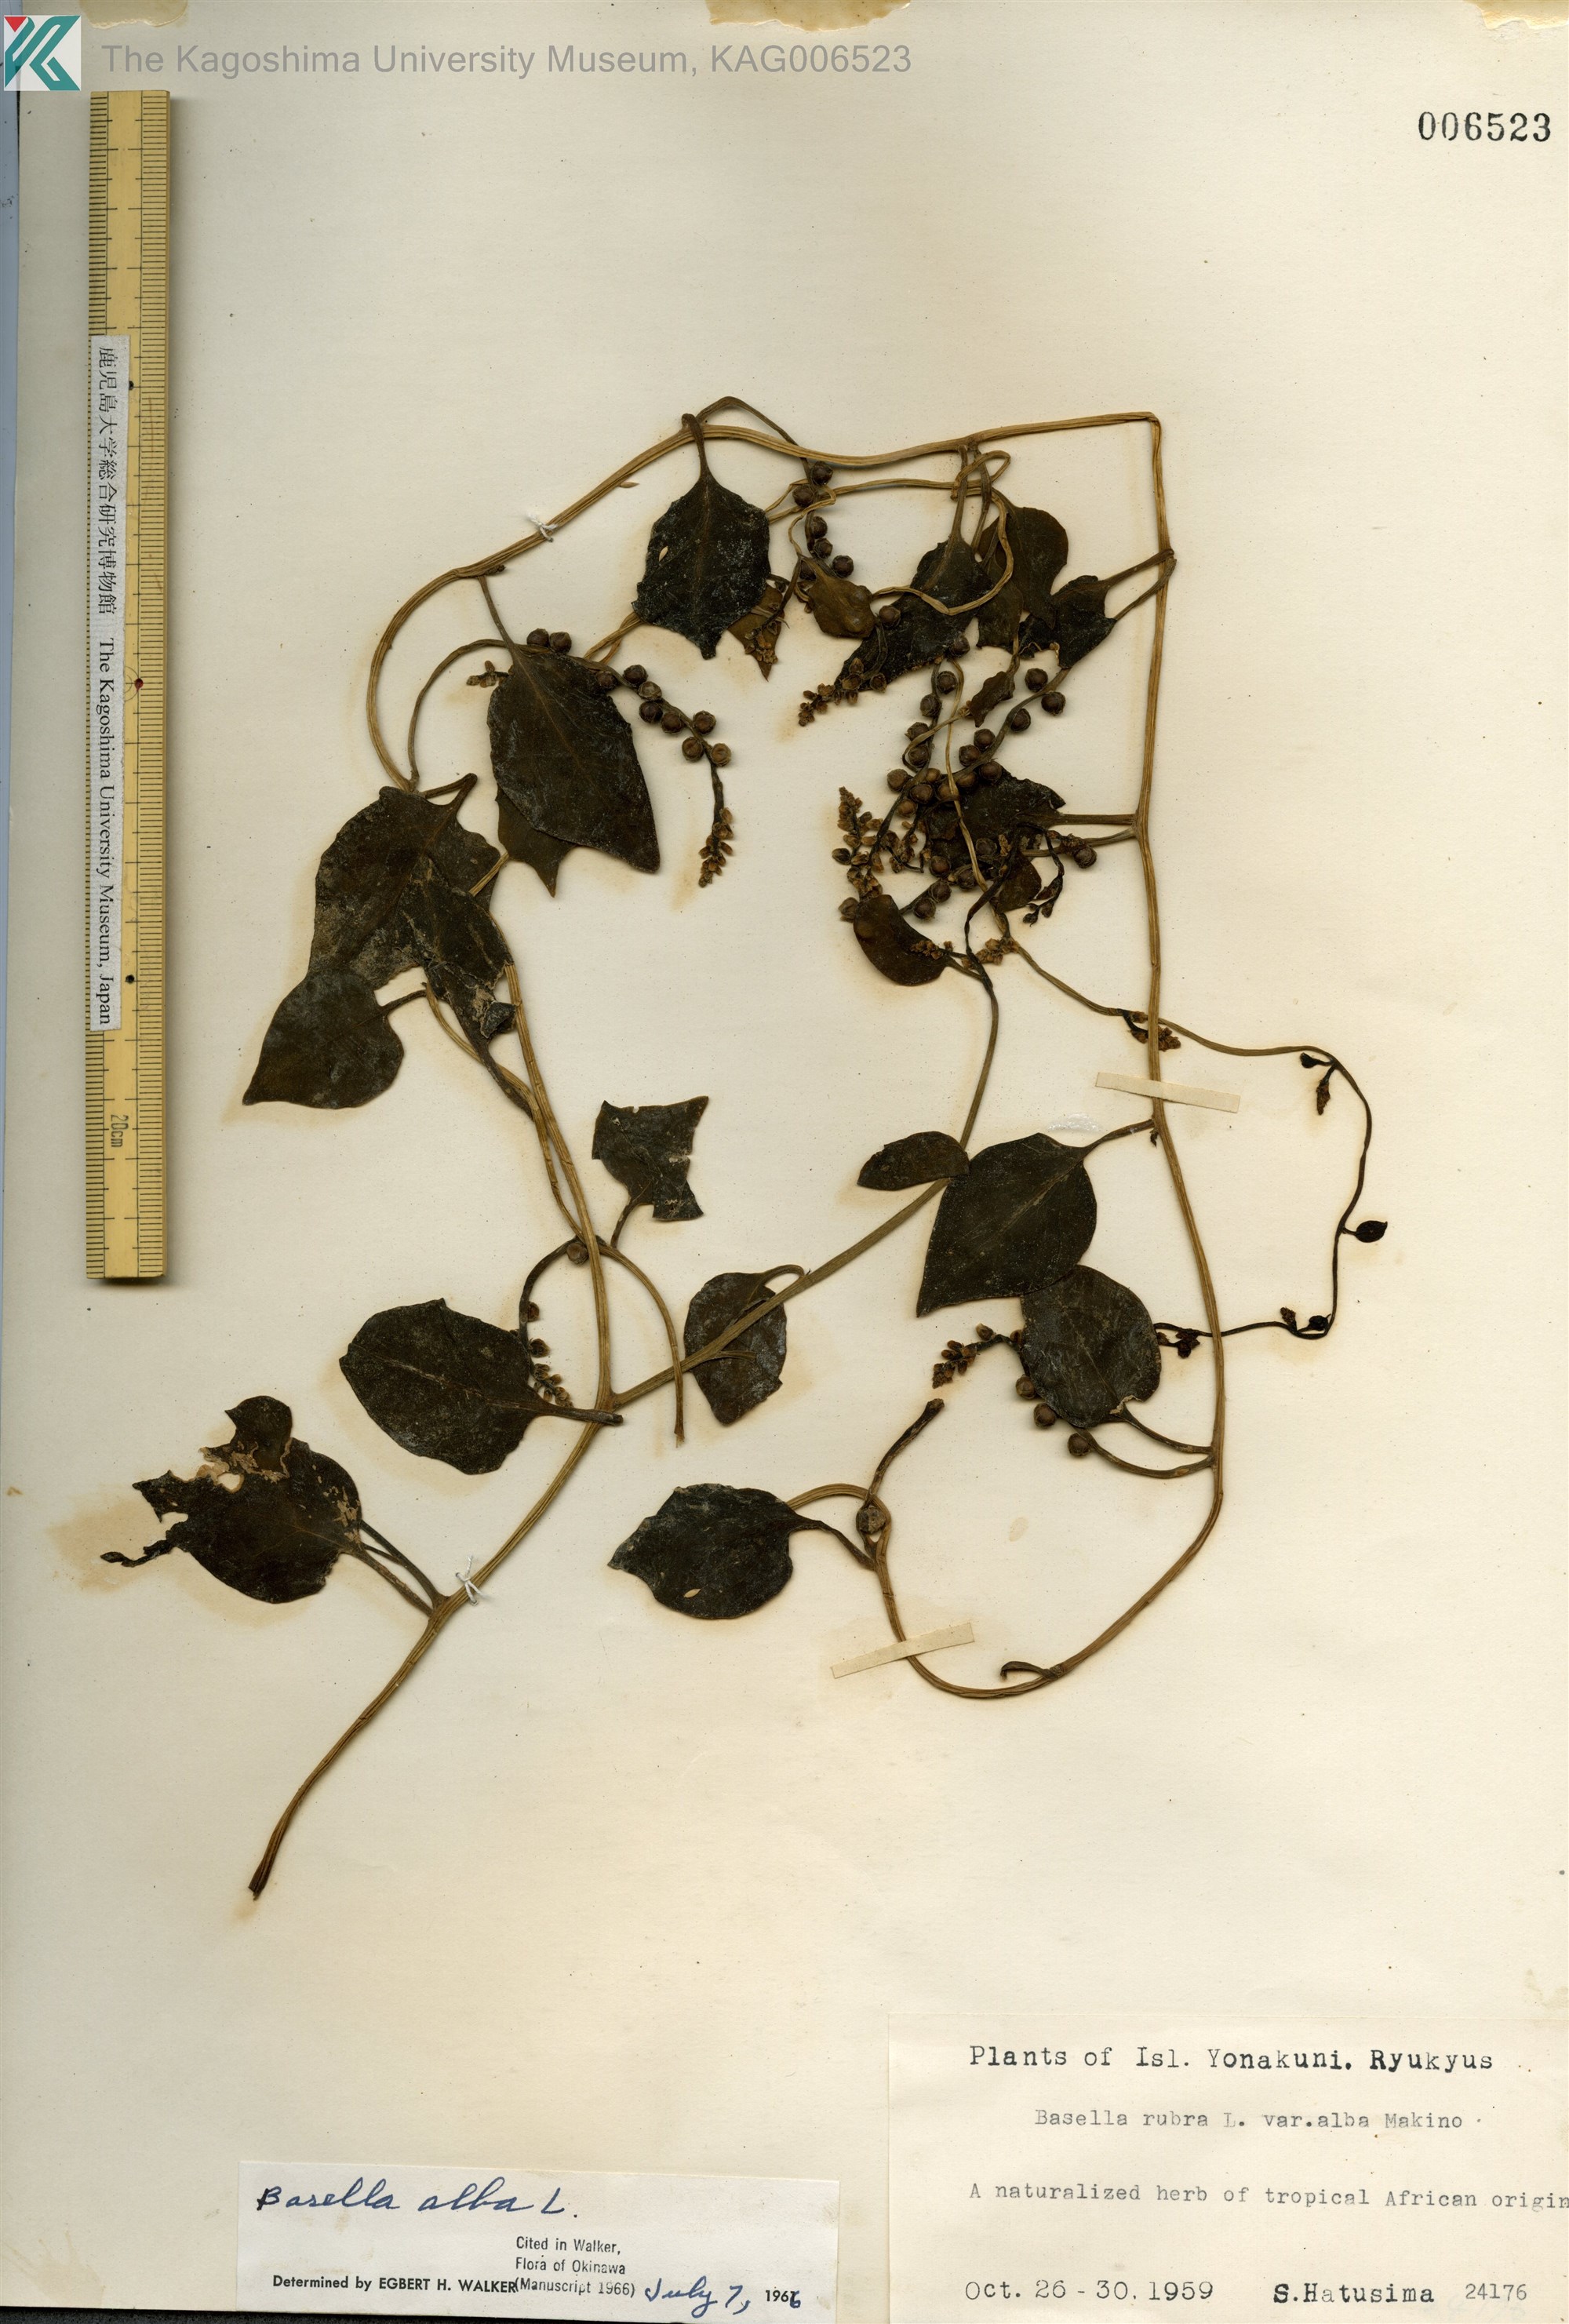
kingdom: Plantae
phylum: Tracheophyta
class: Magnoliopsida
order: Caryophyllales
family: Basellaceae
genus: Basella
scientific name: Basella alba
